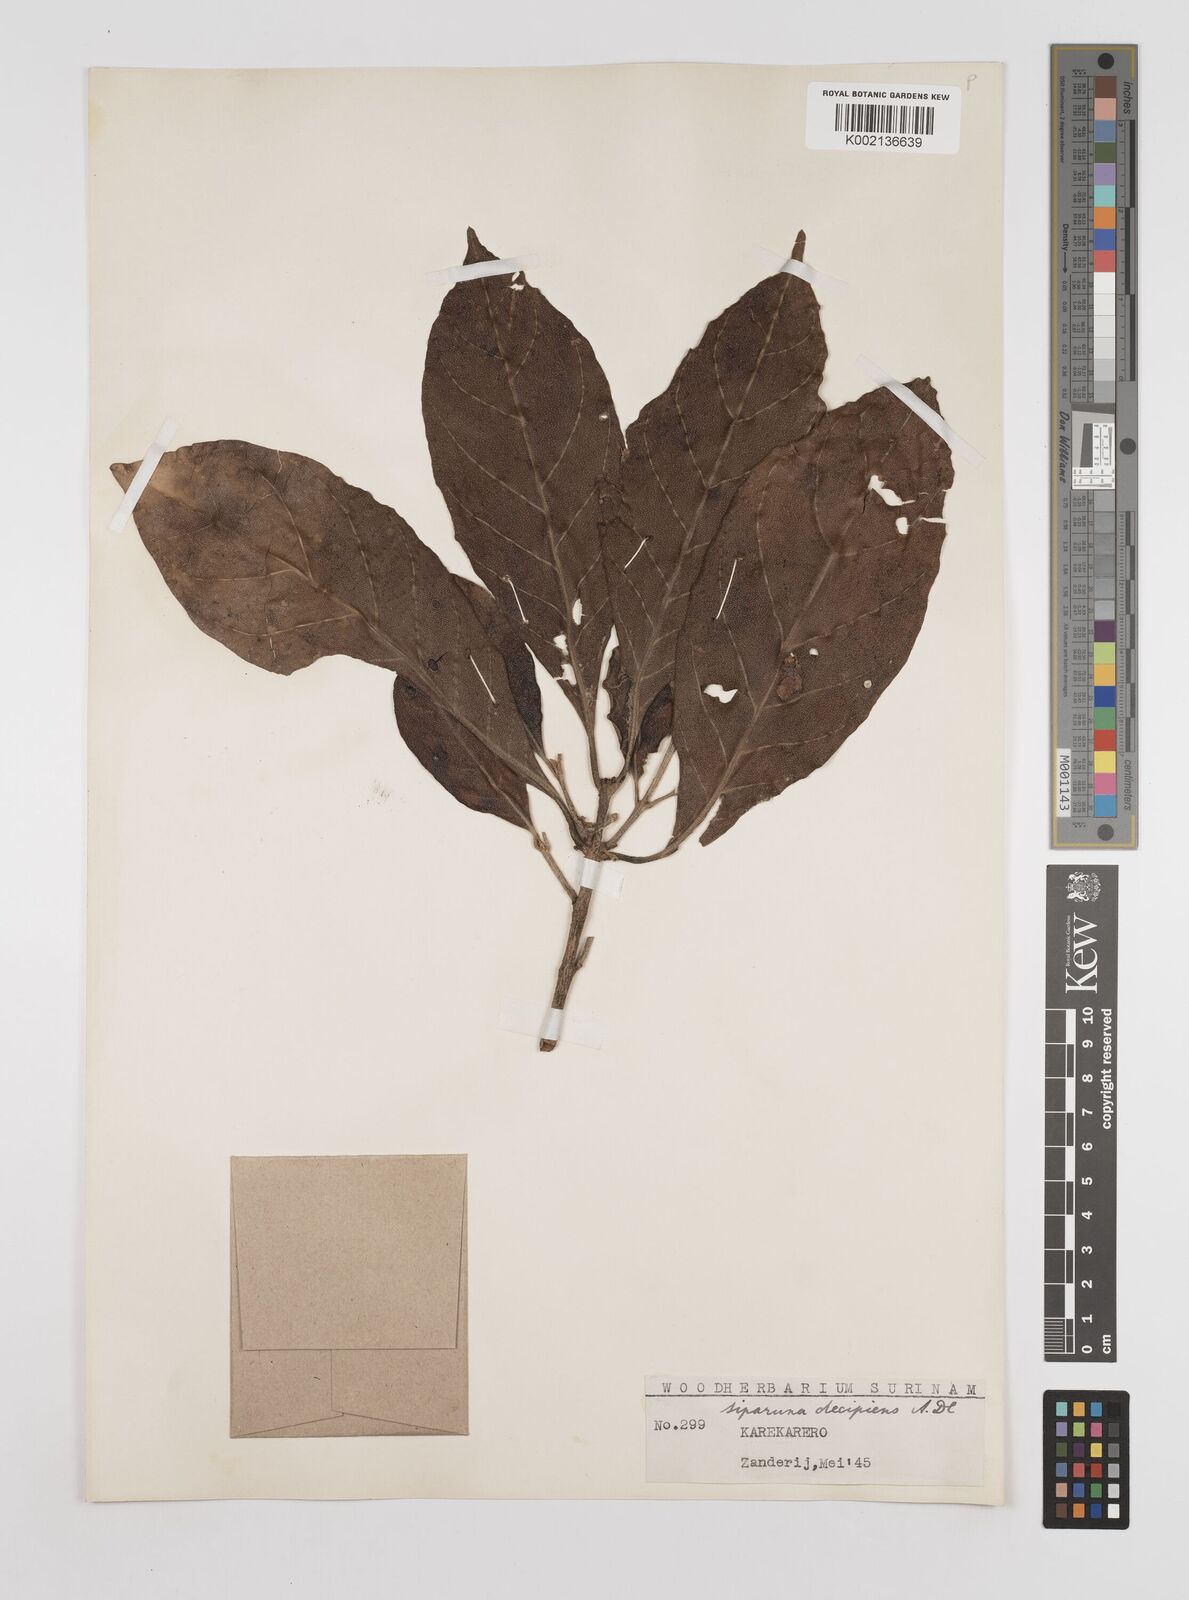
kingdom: Plantae
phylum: Tracheophyta
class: Magnoliopsida
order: Laurales
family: Siparunaceae
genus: Siparuna
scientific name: Siparuna decipiens
